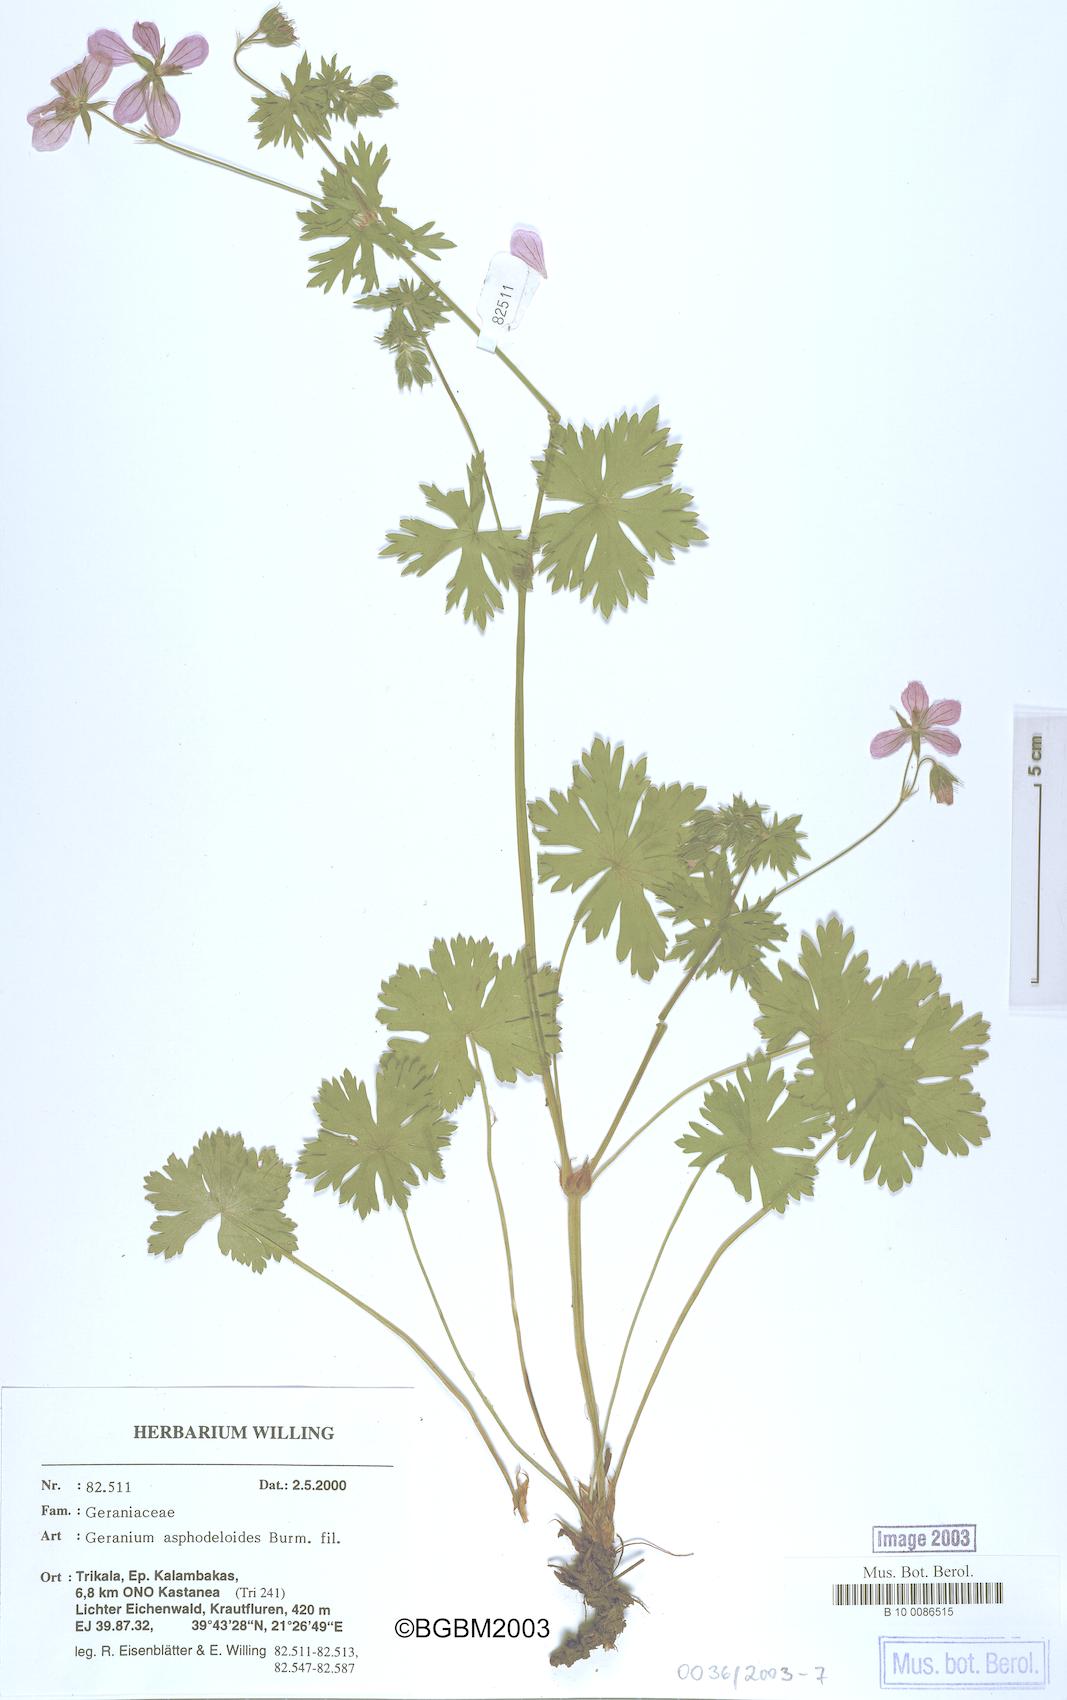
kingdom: Plantae
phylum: Tracheophyta
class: Magnoliopsida
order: Geraniales
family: Geraniaceae
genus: Geranium
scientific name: Geranium asphodeloides
